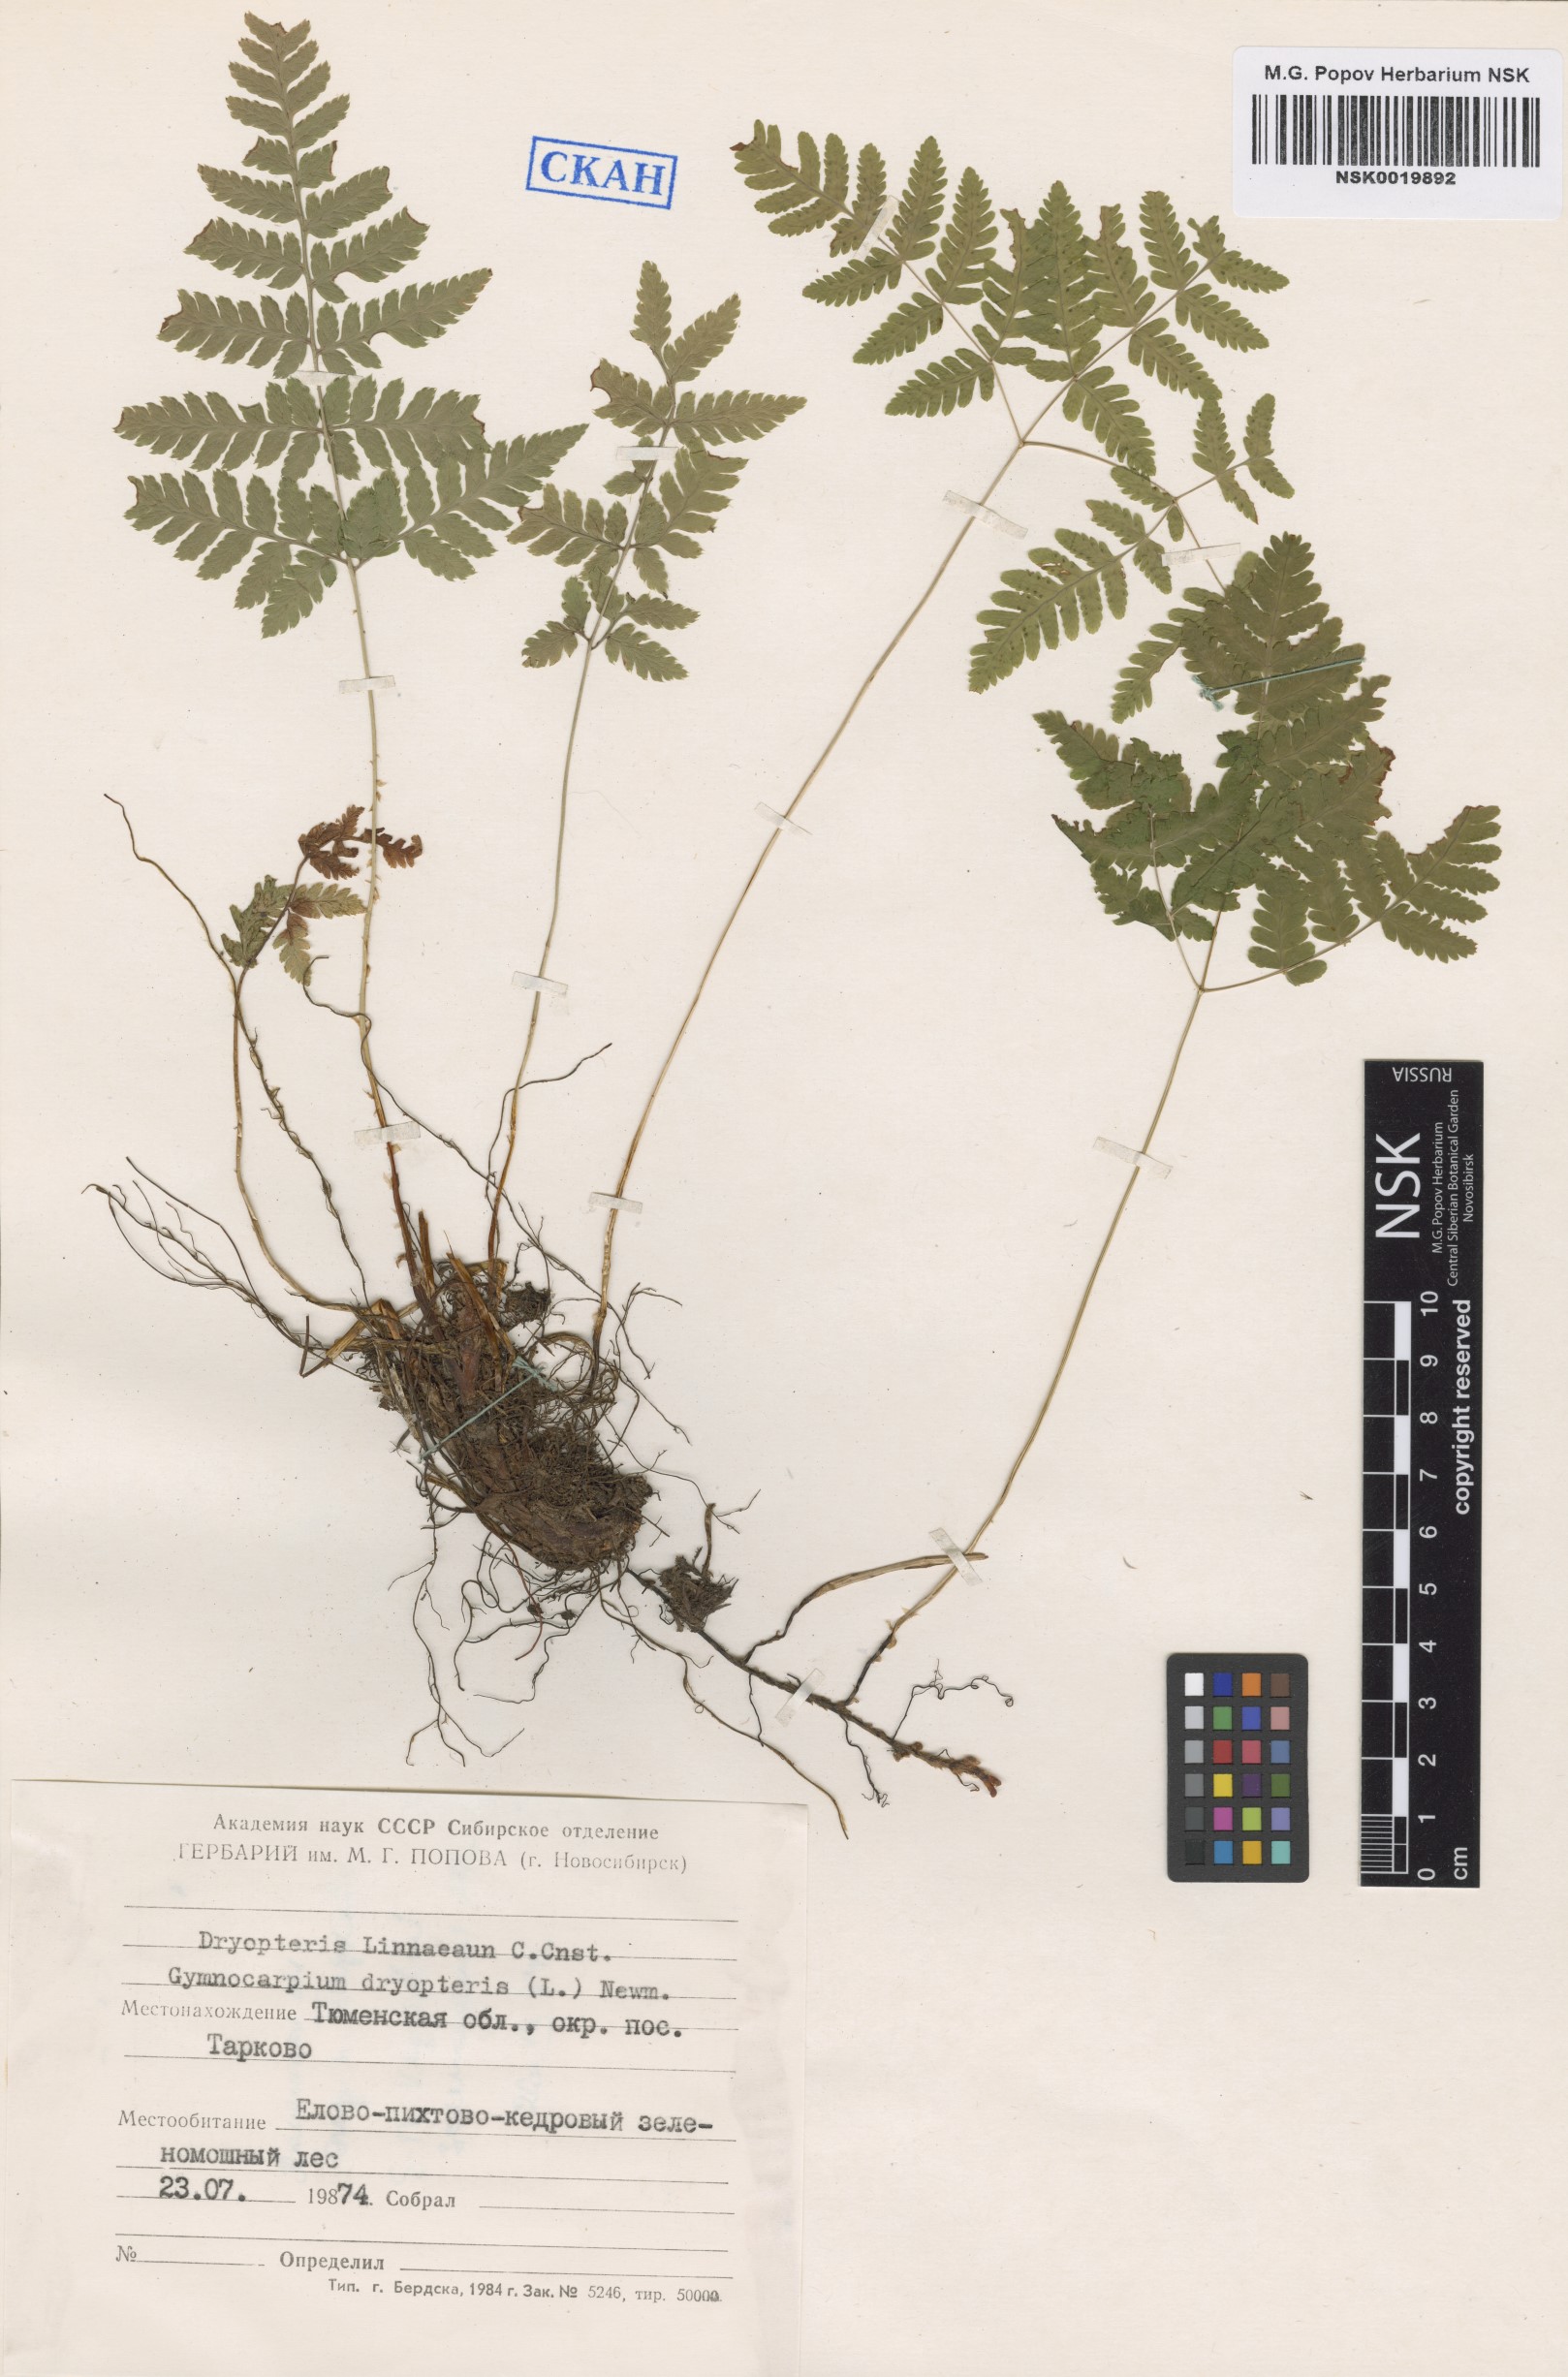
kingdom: Plantae
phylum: Tracheophyta
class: Polypodiopsida
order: Polypodiales
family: Cystopteridaceae
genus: Gymnocarpium
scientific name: Gymnocarpium dryopteris
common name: Oak fern
